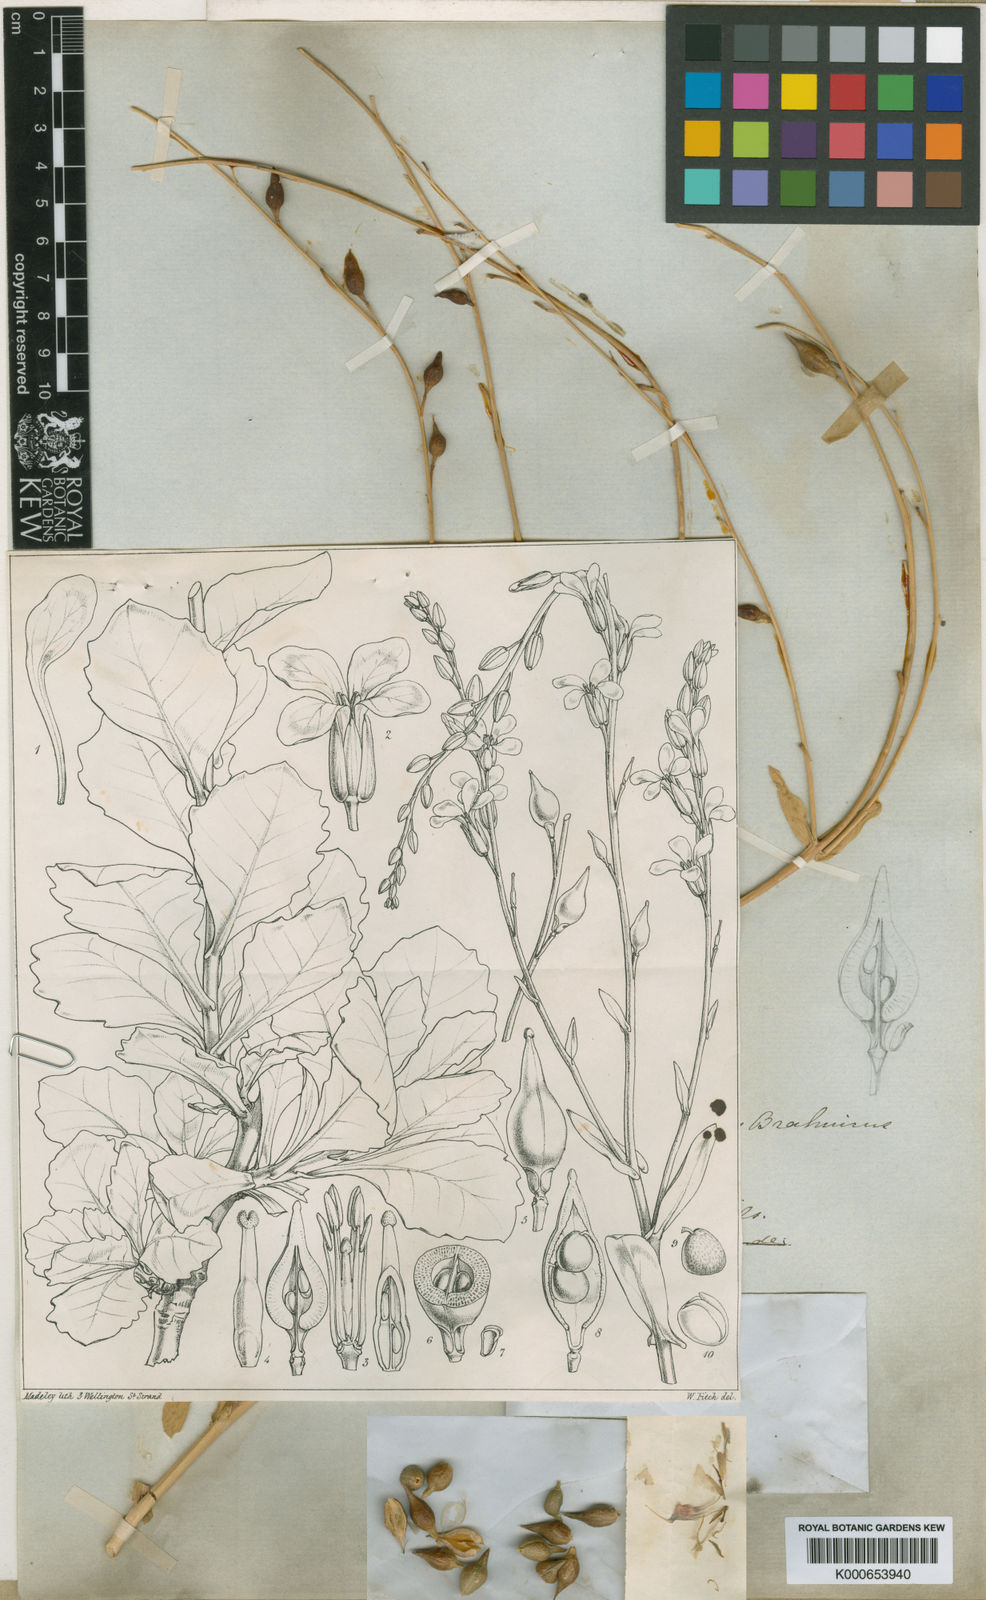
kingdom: Plantae
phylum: Tracheophyta
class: Magnoliopsida
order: Brassicales
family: Brassicaceae
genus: Physorhynchus
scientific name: Physorhynchus brahuicus
